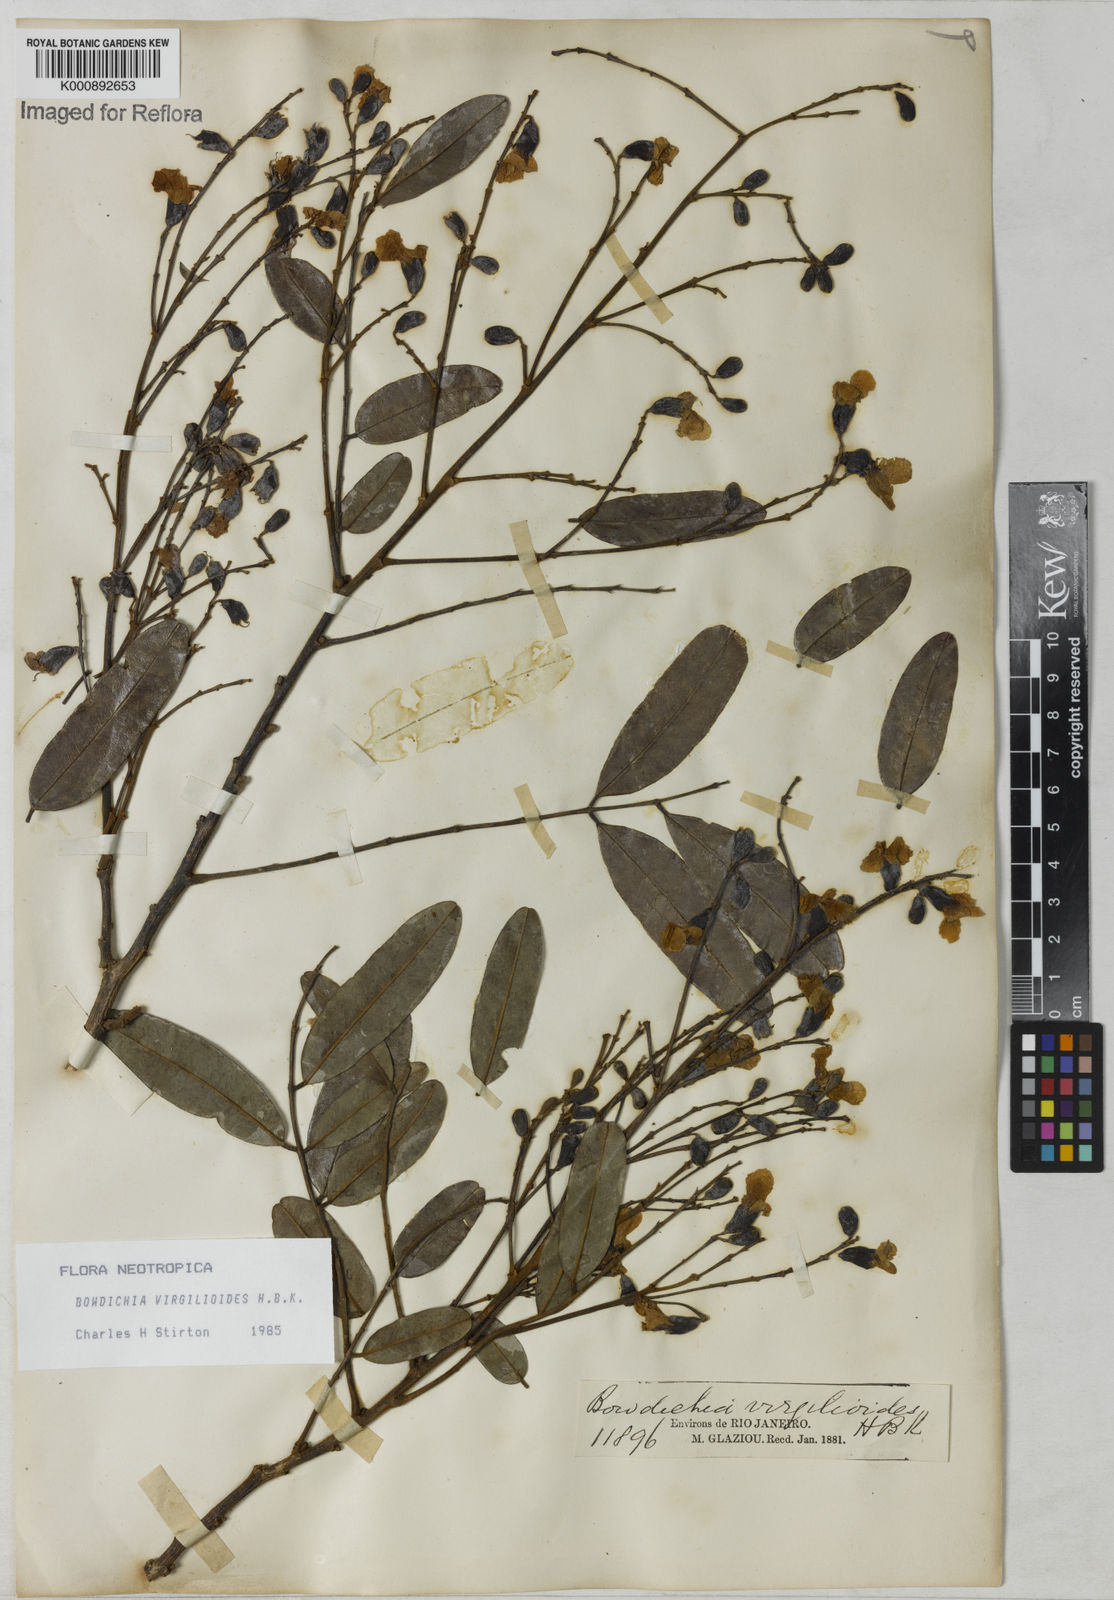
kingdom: Plantae
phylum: Tracheophyta
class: Magnoliopsida
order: Fabales
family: Fabaceae
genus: Bowdichia
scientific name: Bowdichia virgilioides
